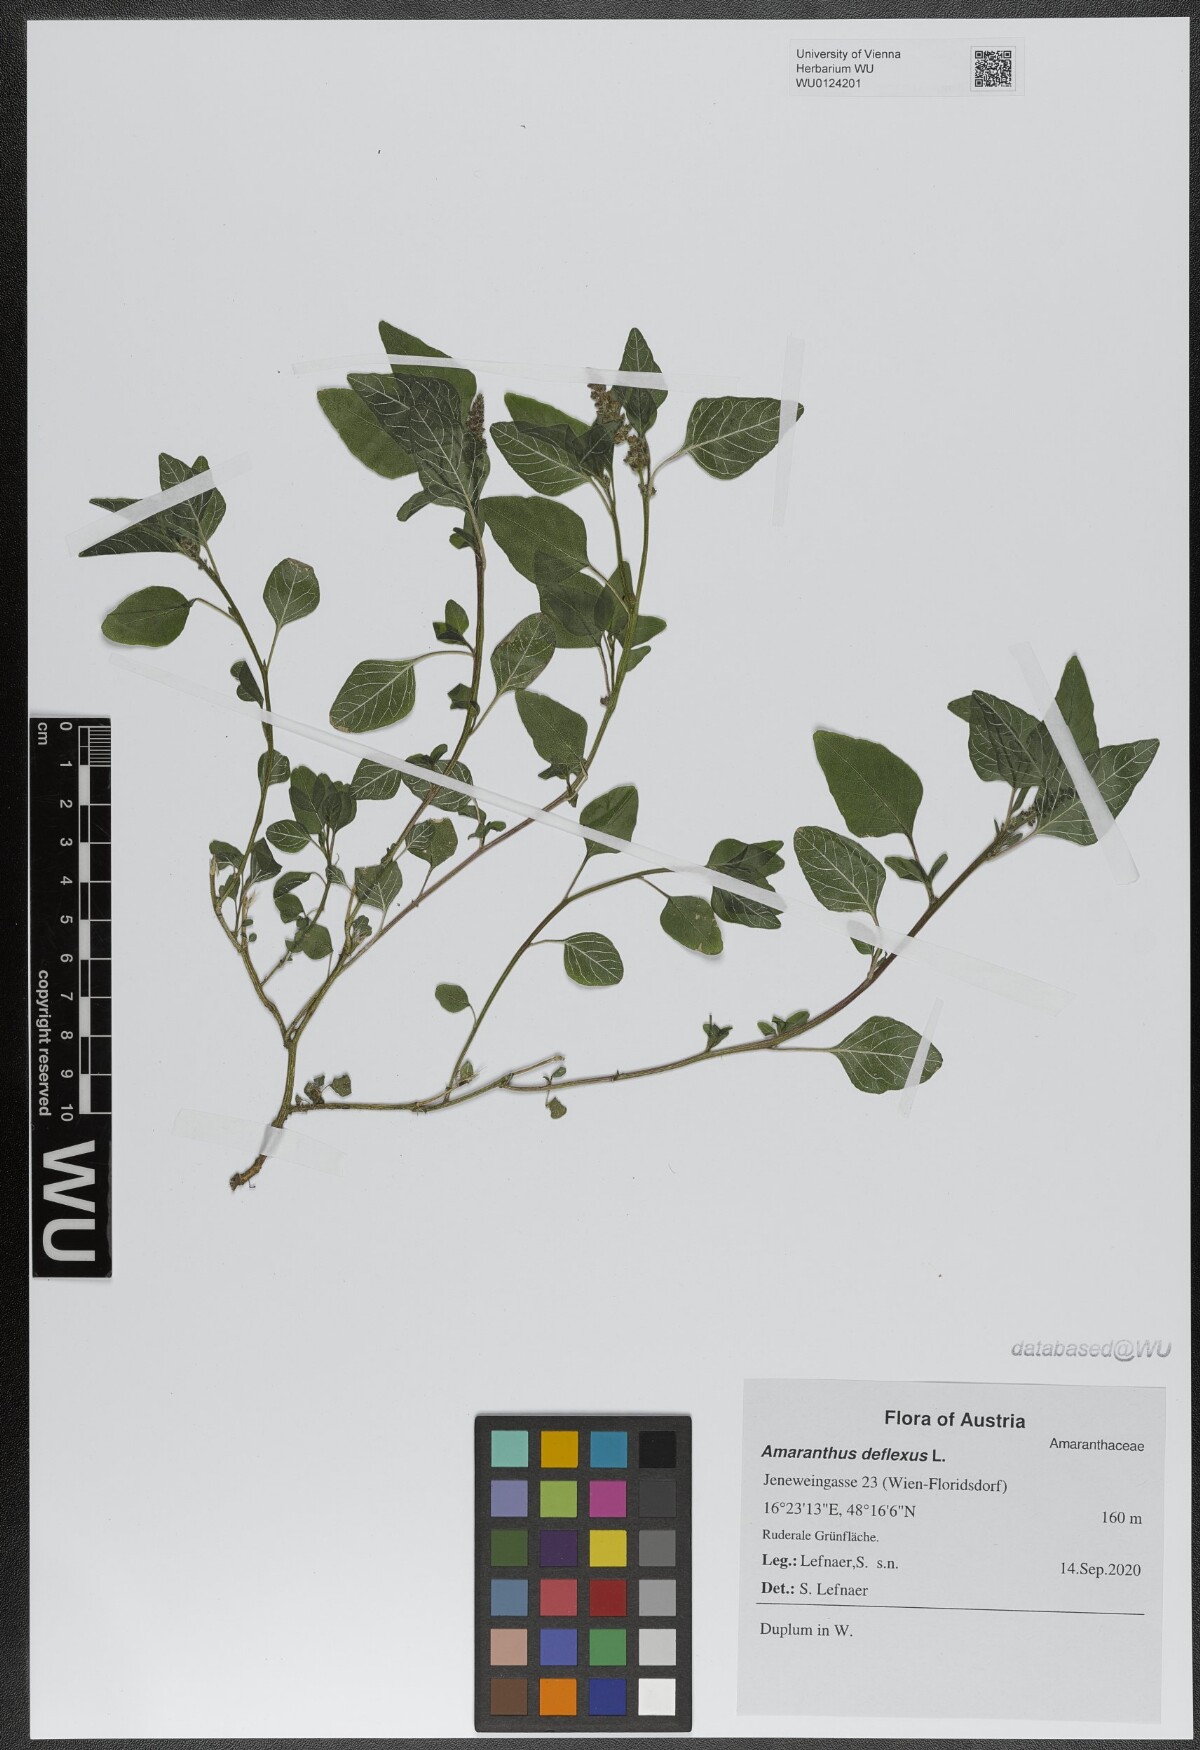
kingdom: Plantae
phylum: Tracheophyta
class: Magnoliopsida
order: Caryophyllales
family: Amaranthaceae
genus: Amaranthus
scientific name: Amaranthus deflexus
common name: Perennial pigweed
